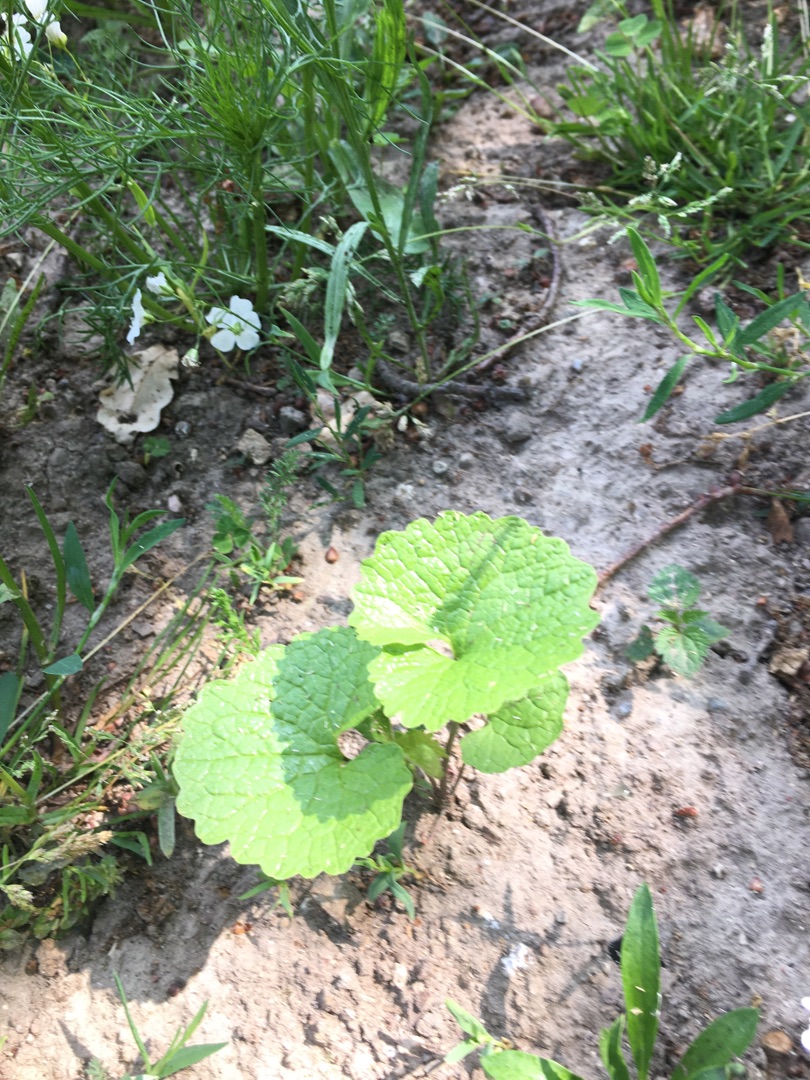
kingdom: Plantae
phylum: Tracheophyta
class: Magnoliopsida
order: Brassicales
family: Brassicaceae
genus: Alliaria
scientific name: Alliaria petiolata
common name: Løgkarse
